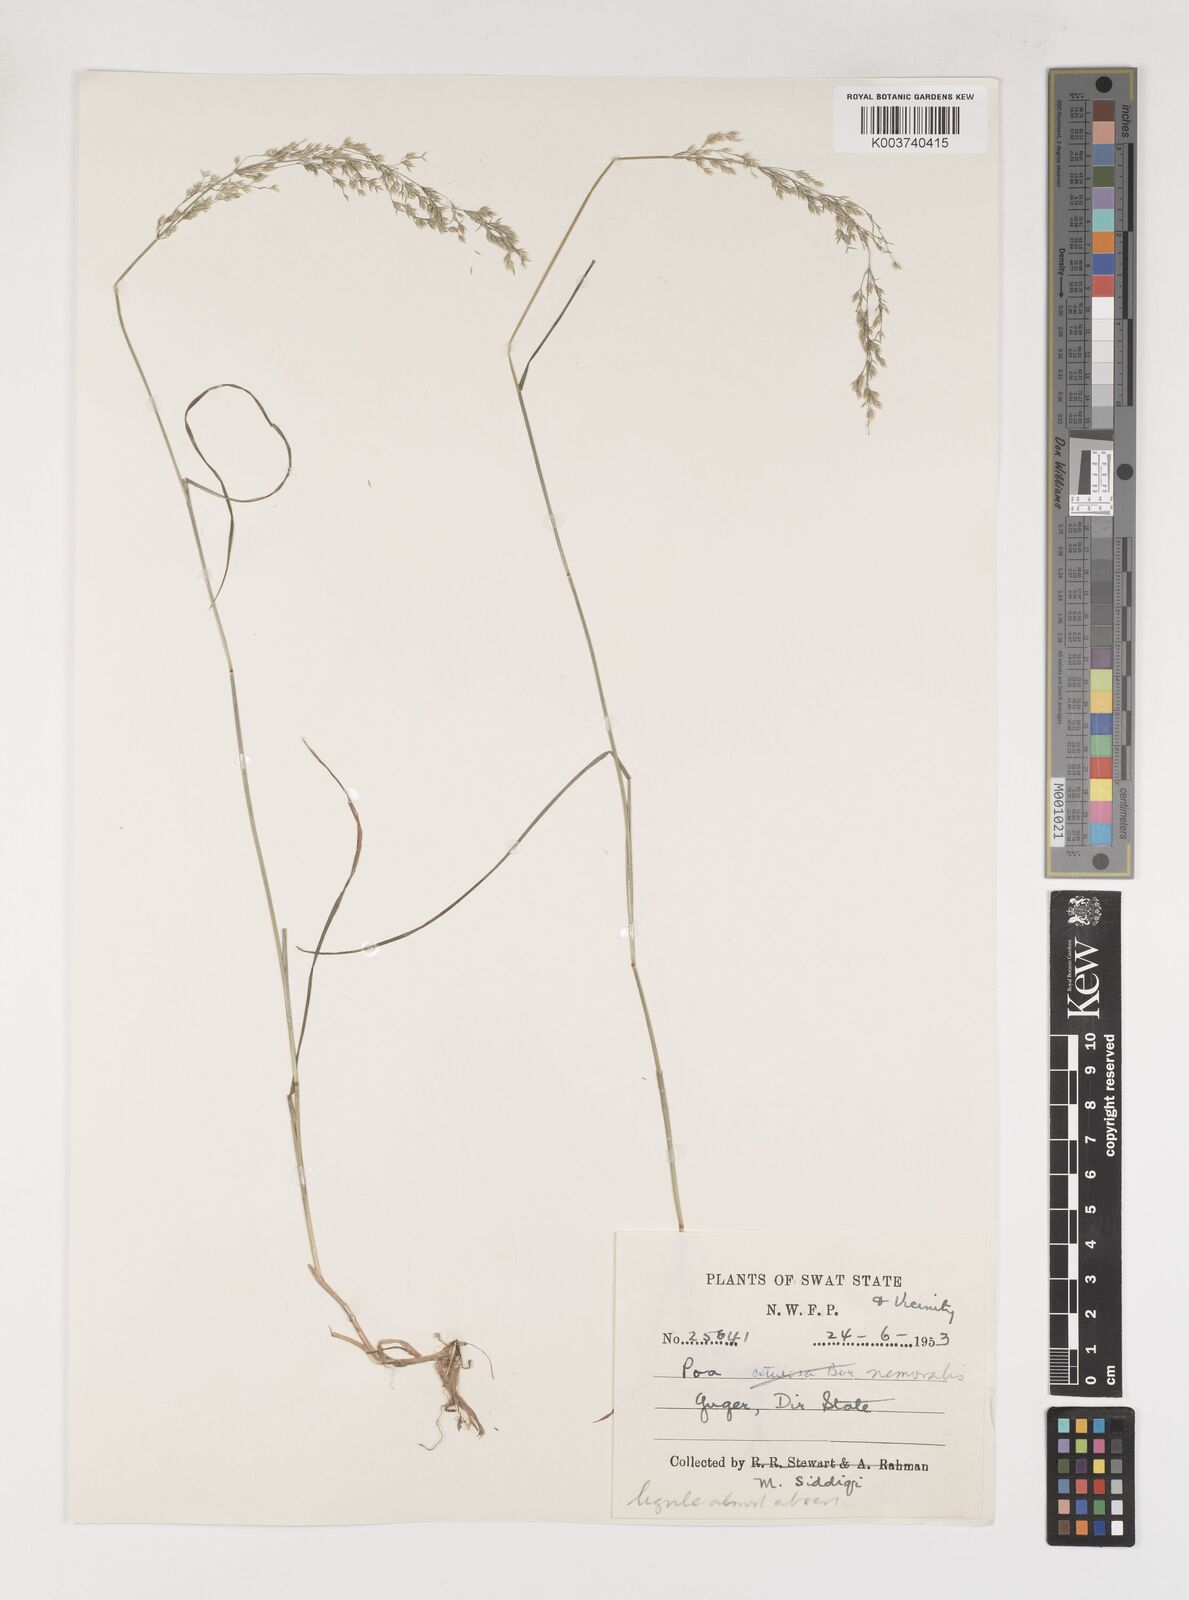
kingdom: Plantae
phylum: Tracheophyta
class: Liliopsida
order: Poales
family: Poaceae
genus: Poa
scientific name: Poa nemoralis
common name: Wood bluegrass
